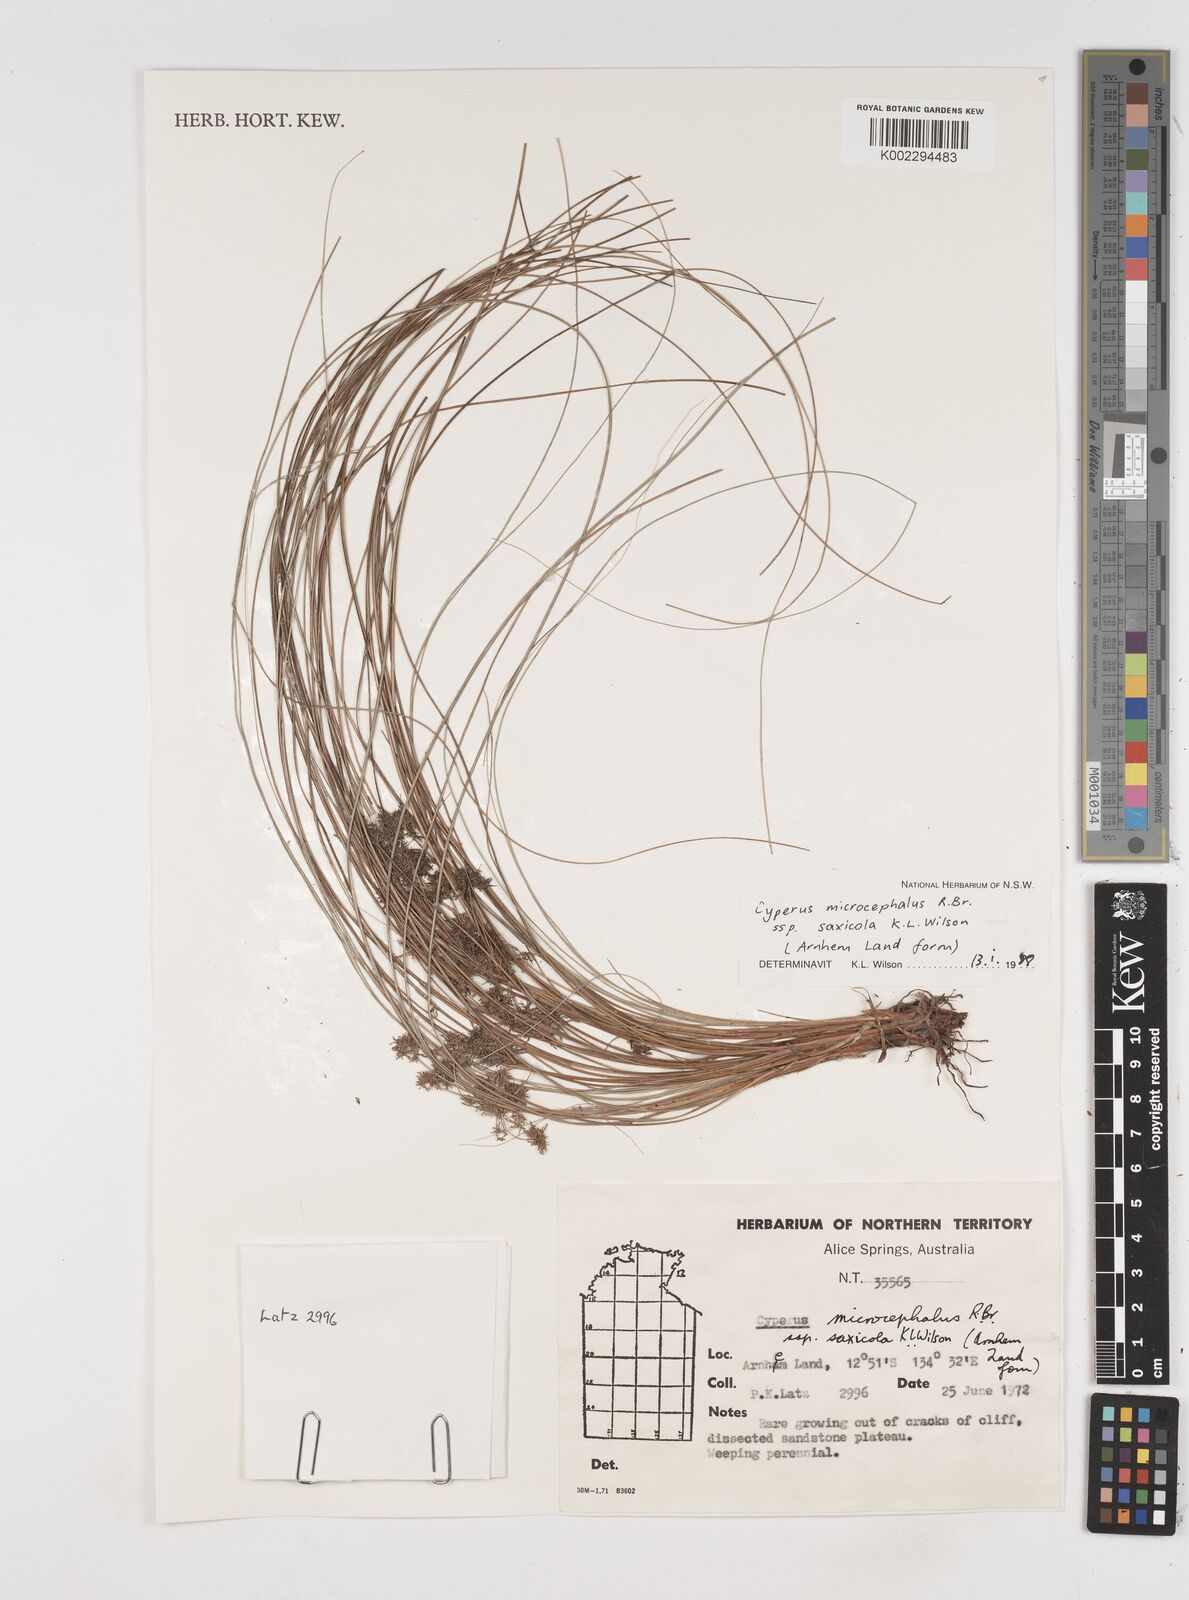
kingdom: Plantae
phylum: Tracheophyta
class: Liliopsida
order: Poales
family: Cyperaceae
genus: Cyperus
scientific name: Cyperus microcephalus
